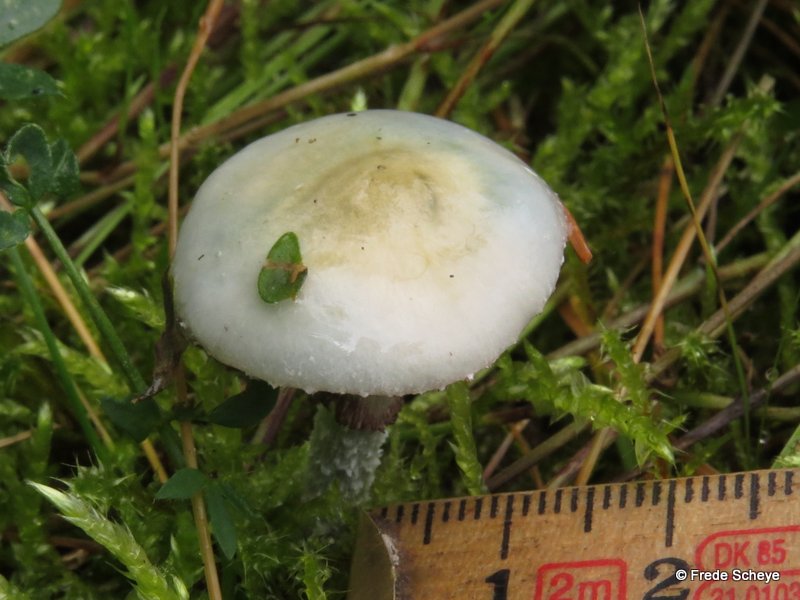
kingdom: Fungi
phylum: Basidiomycota
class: Agaricomycetes
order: Agaricales
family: Strophariaceae
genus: Stropharia
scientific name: Stropharia cyanea
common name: blågrøn bredblad
